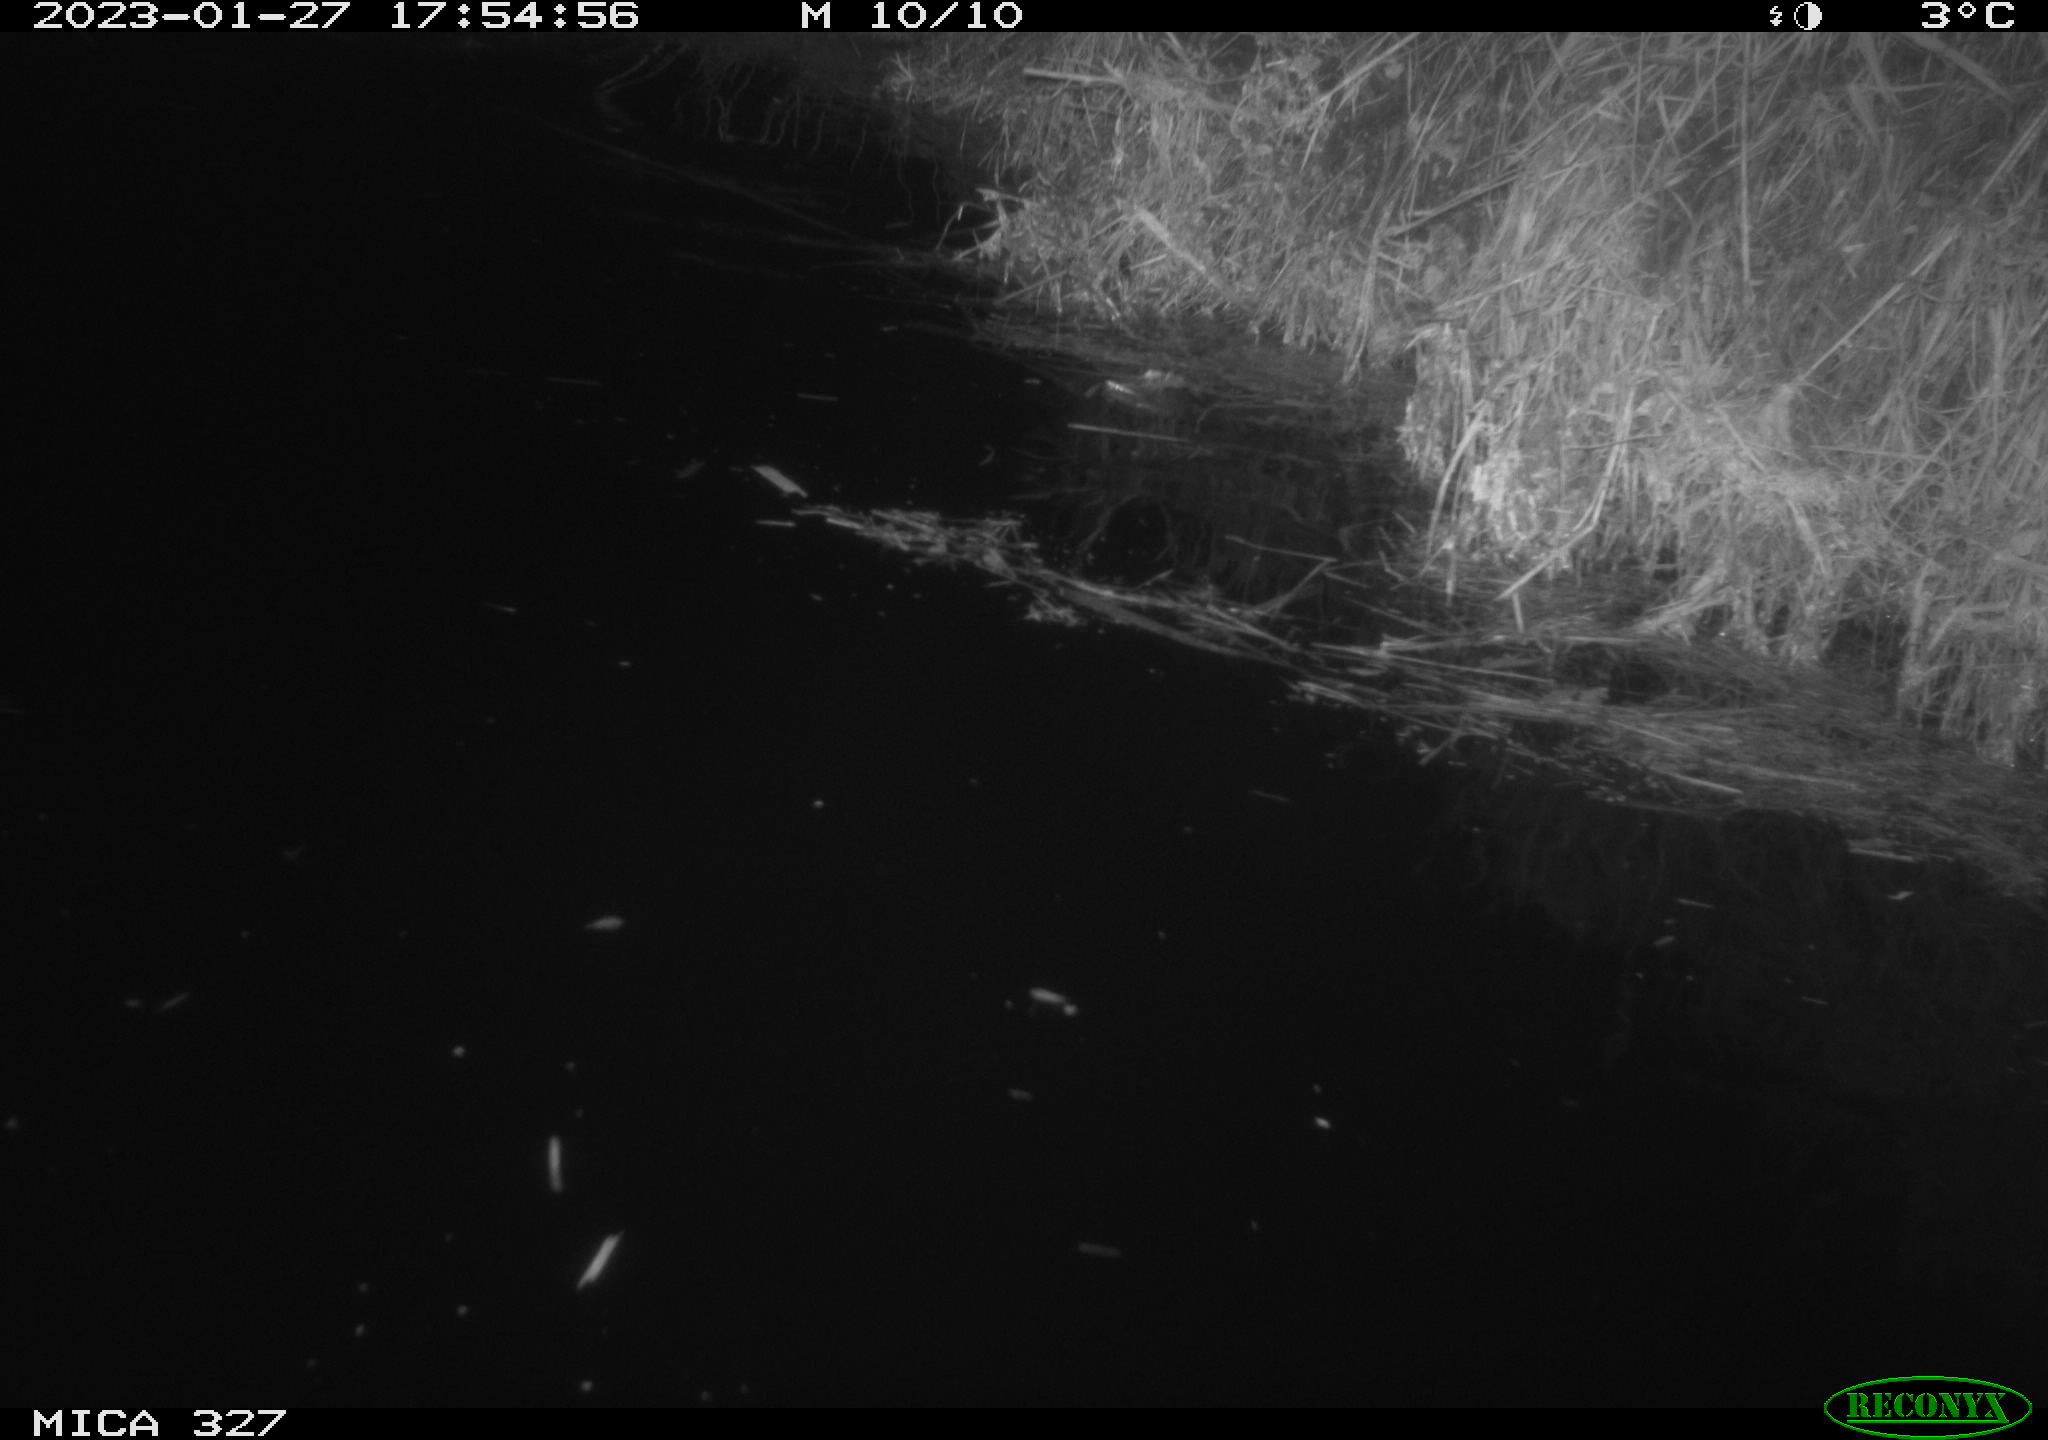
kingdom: Animalia
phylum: Chordata
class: Mammalia
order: Rodentia
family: Cricetidae
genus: Ondatra
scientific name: Ondatra zibethicus
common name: Muskrat
